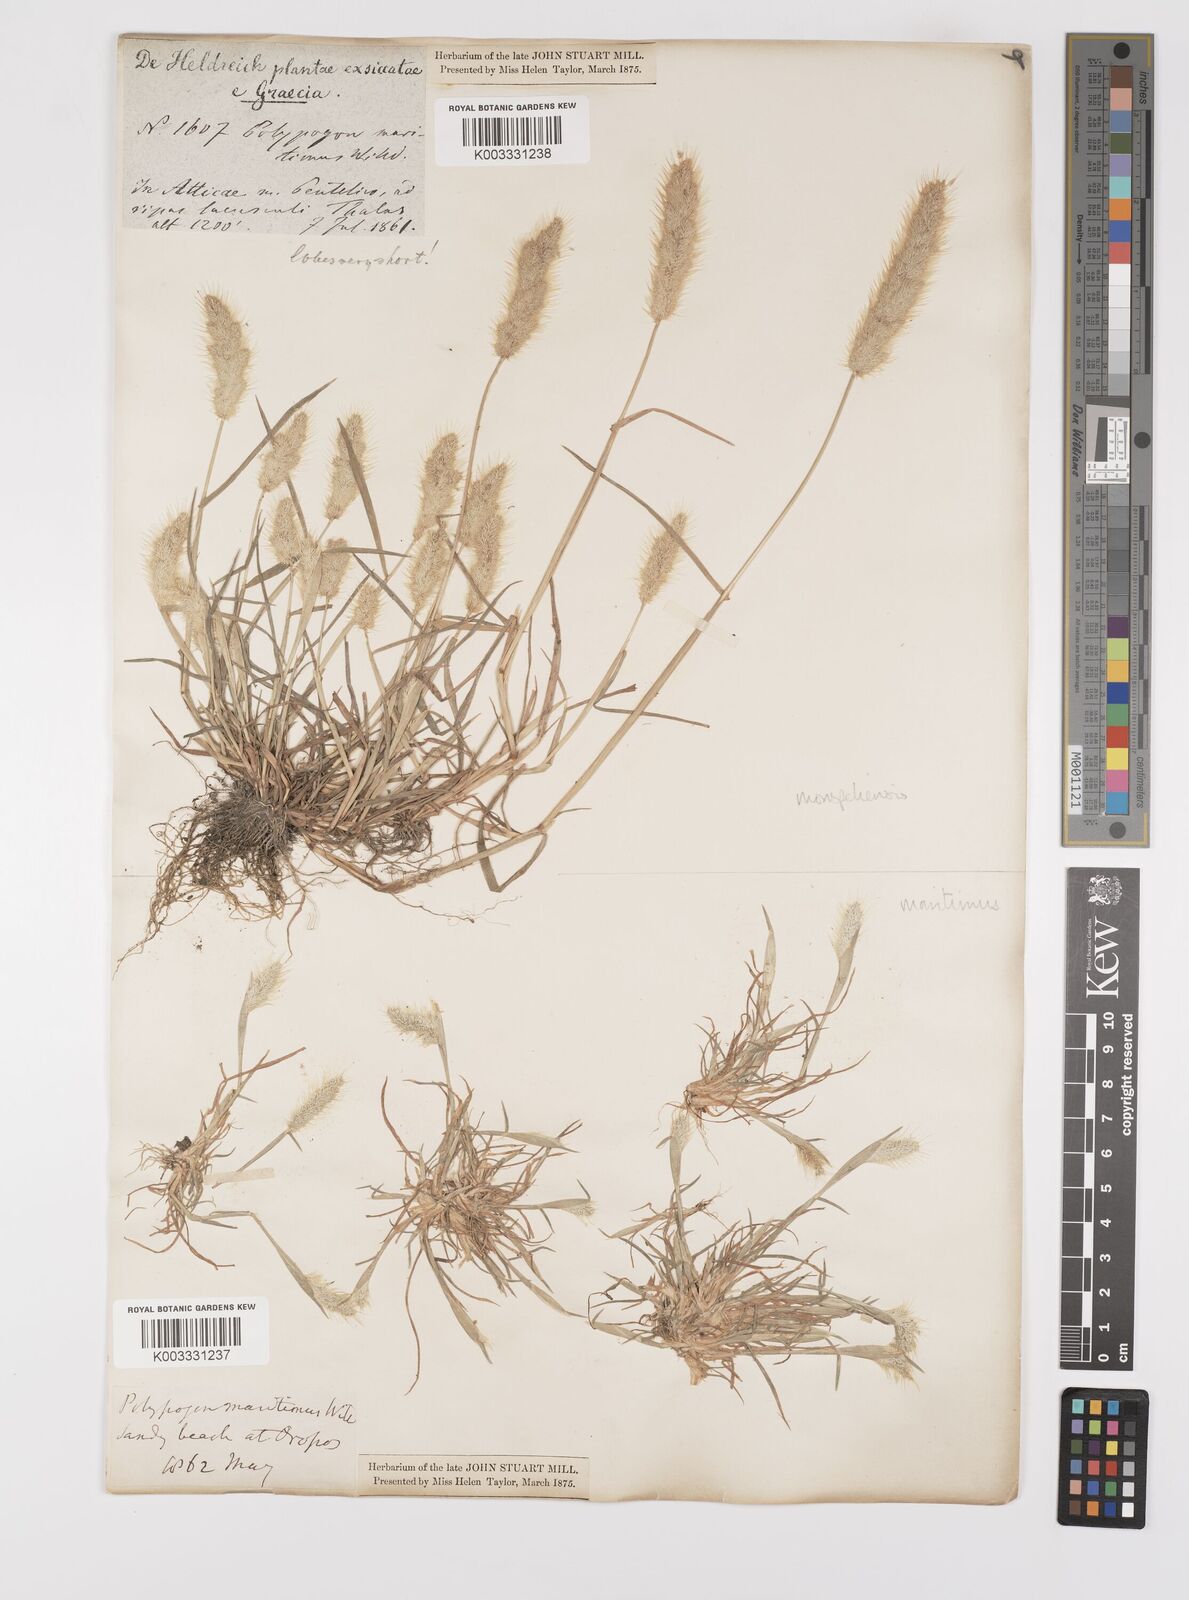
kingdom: Plantae
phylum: Tracheophyta
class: Liliopsida
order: Poales
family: Poaceae
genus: Polypogon
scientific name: Polypogon maritimus
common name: Mediterranean rabbitsfoot grass
